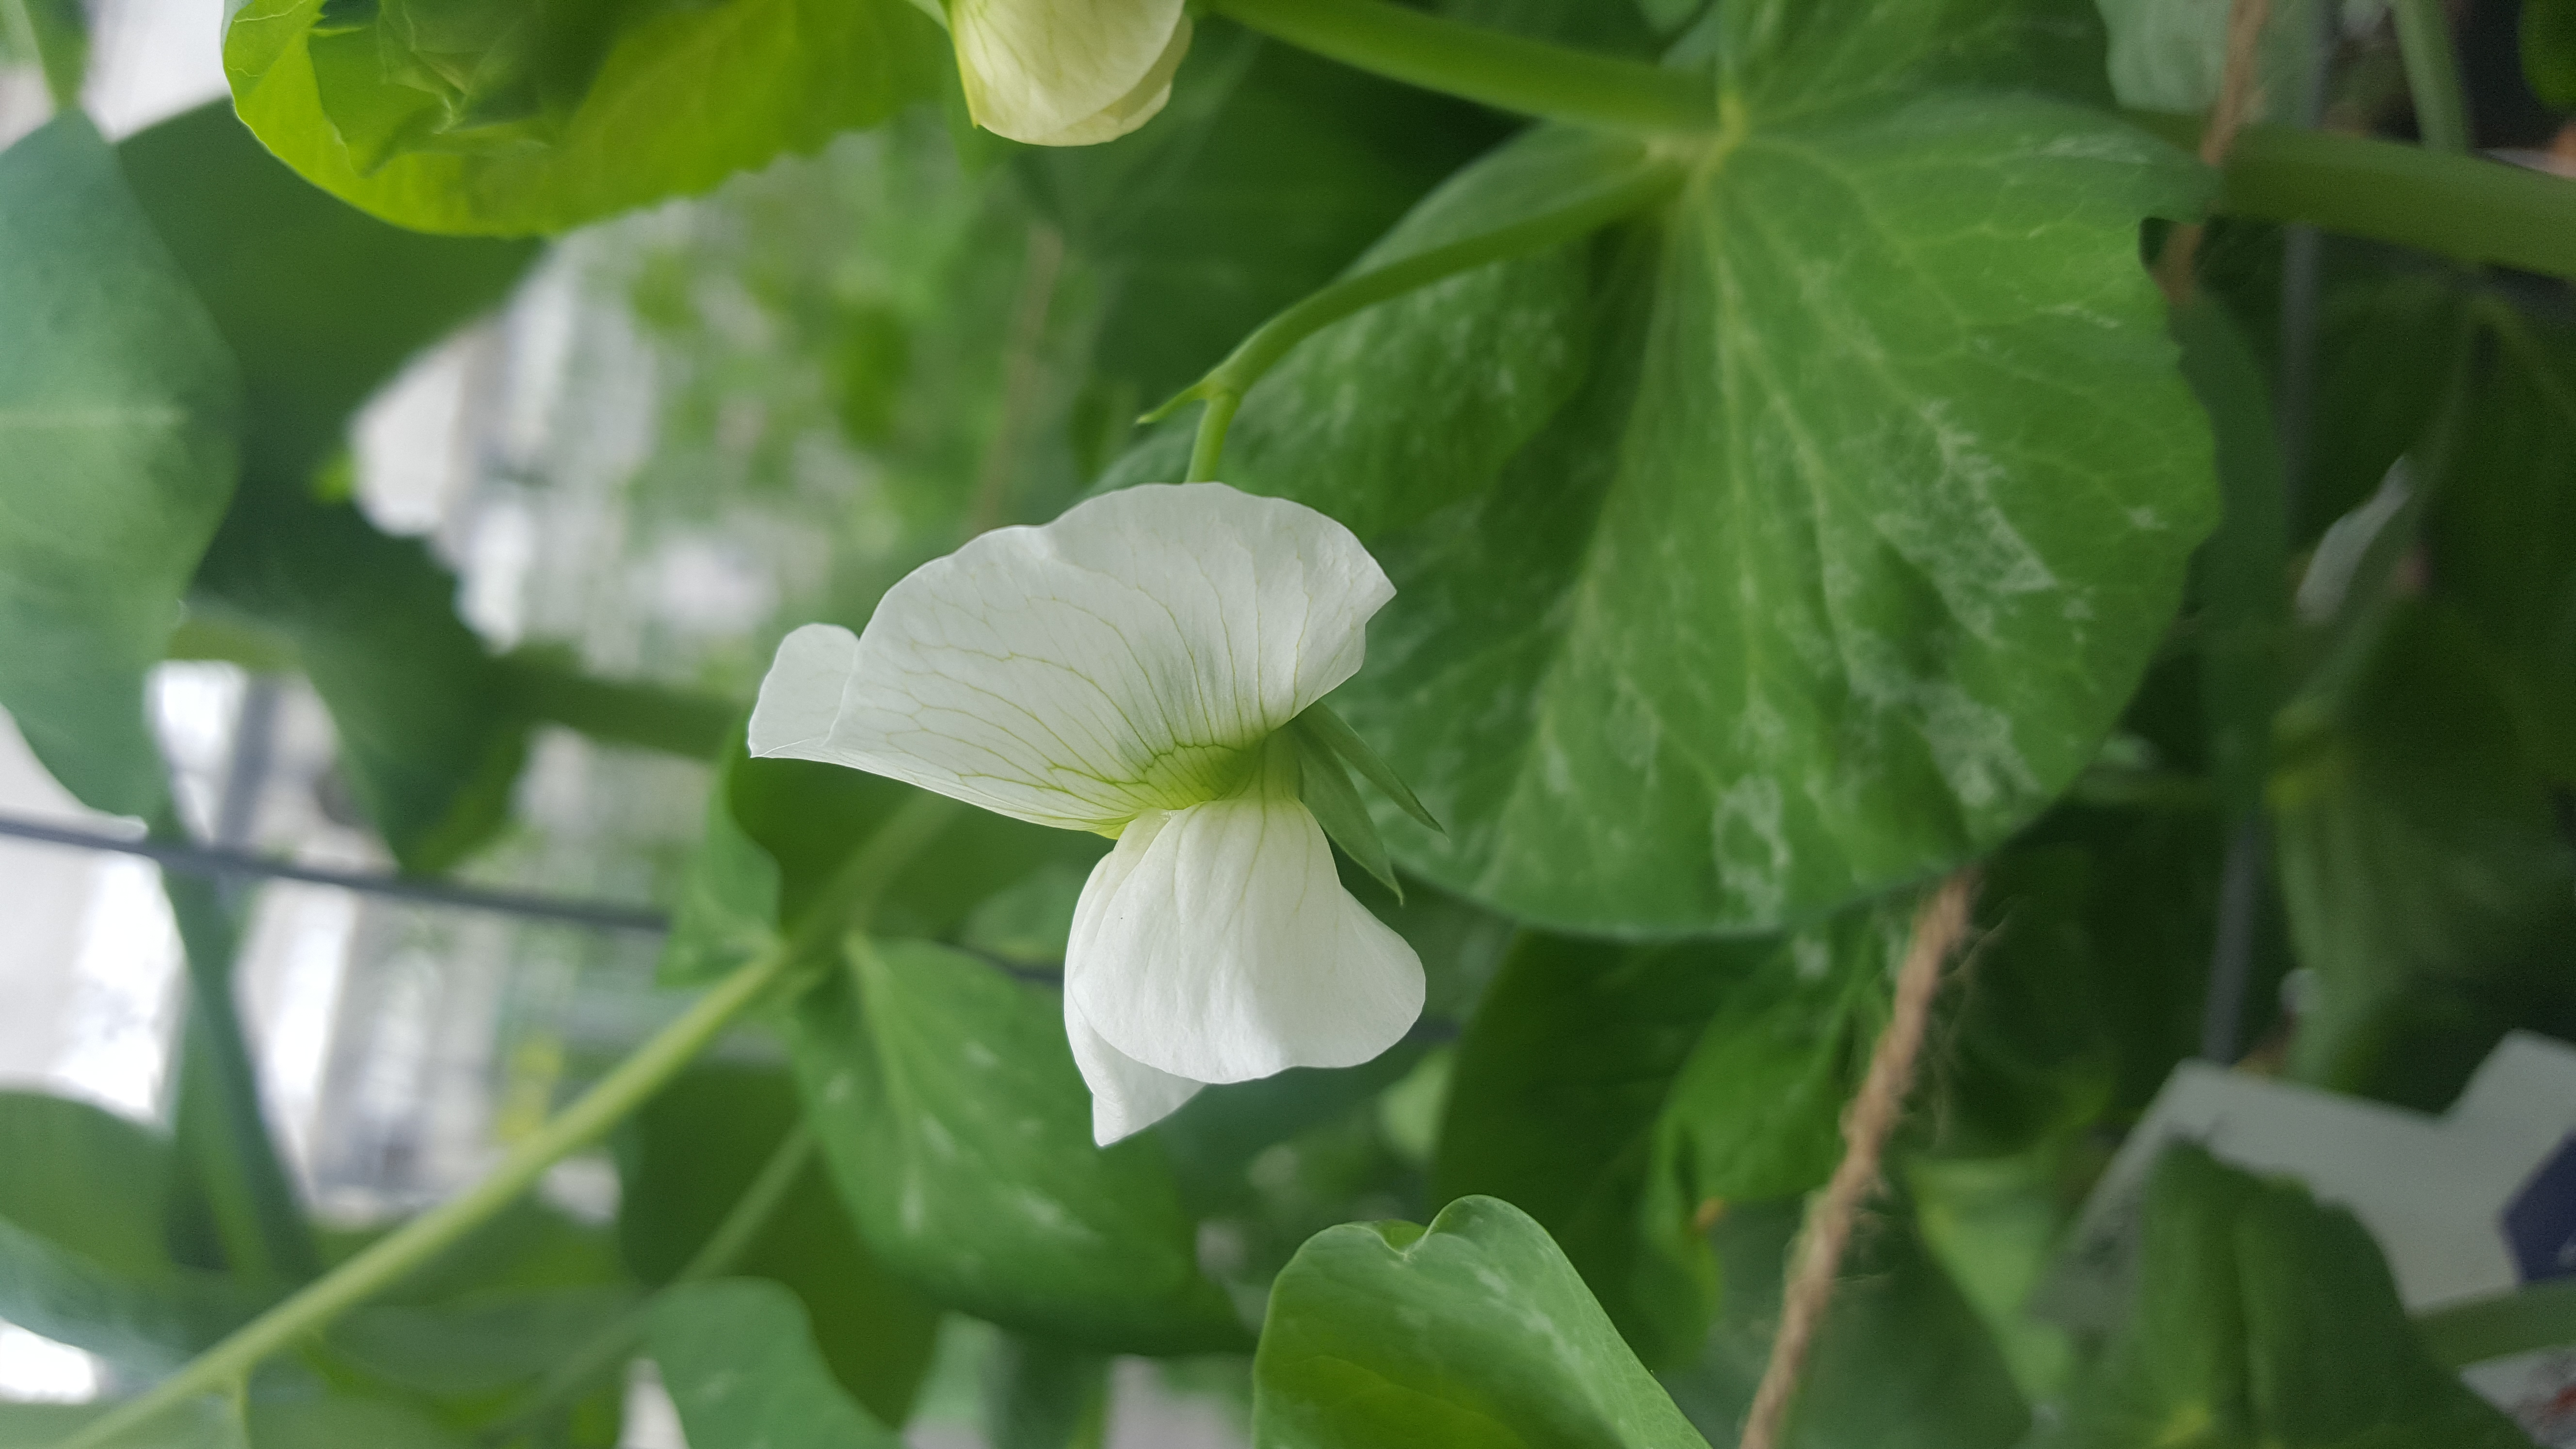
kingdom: Plantae
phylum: Tracheophyta
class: Magnoliopsida
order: Fabales
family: Fabaceae
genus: Lathyrus
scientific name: Lathyrus oleraceus
